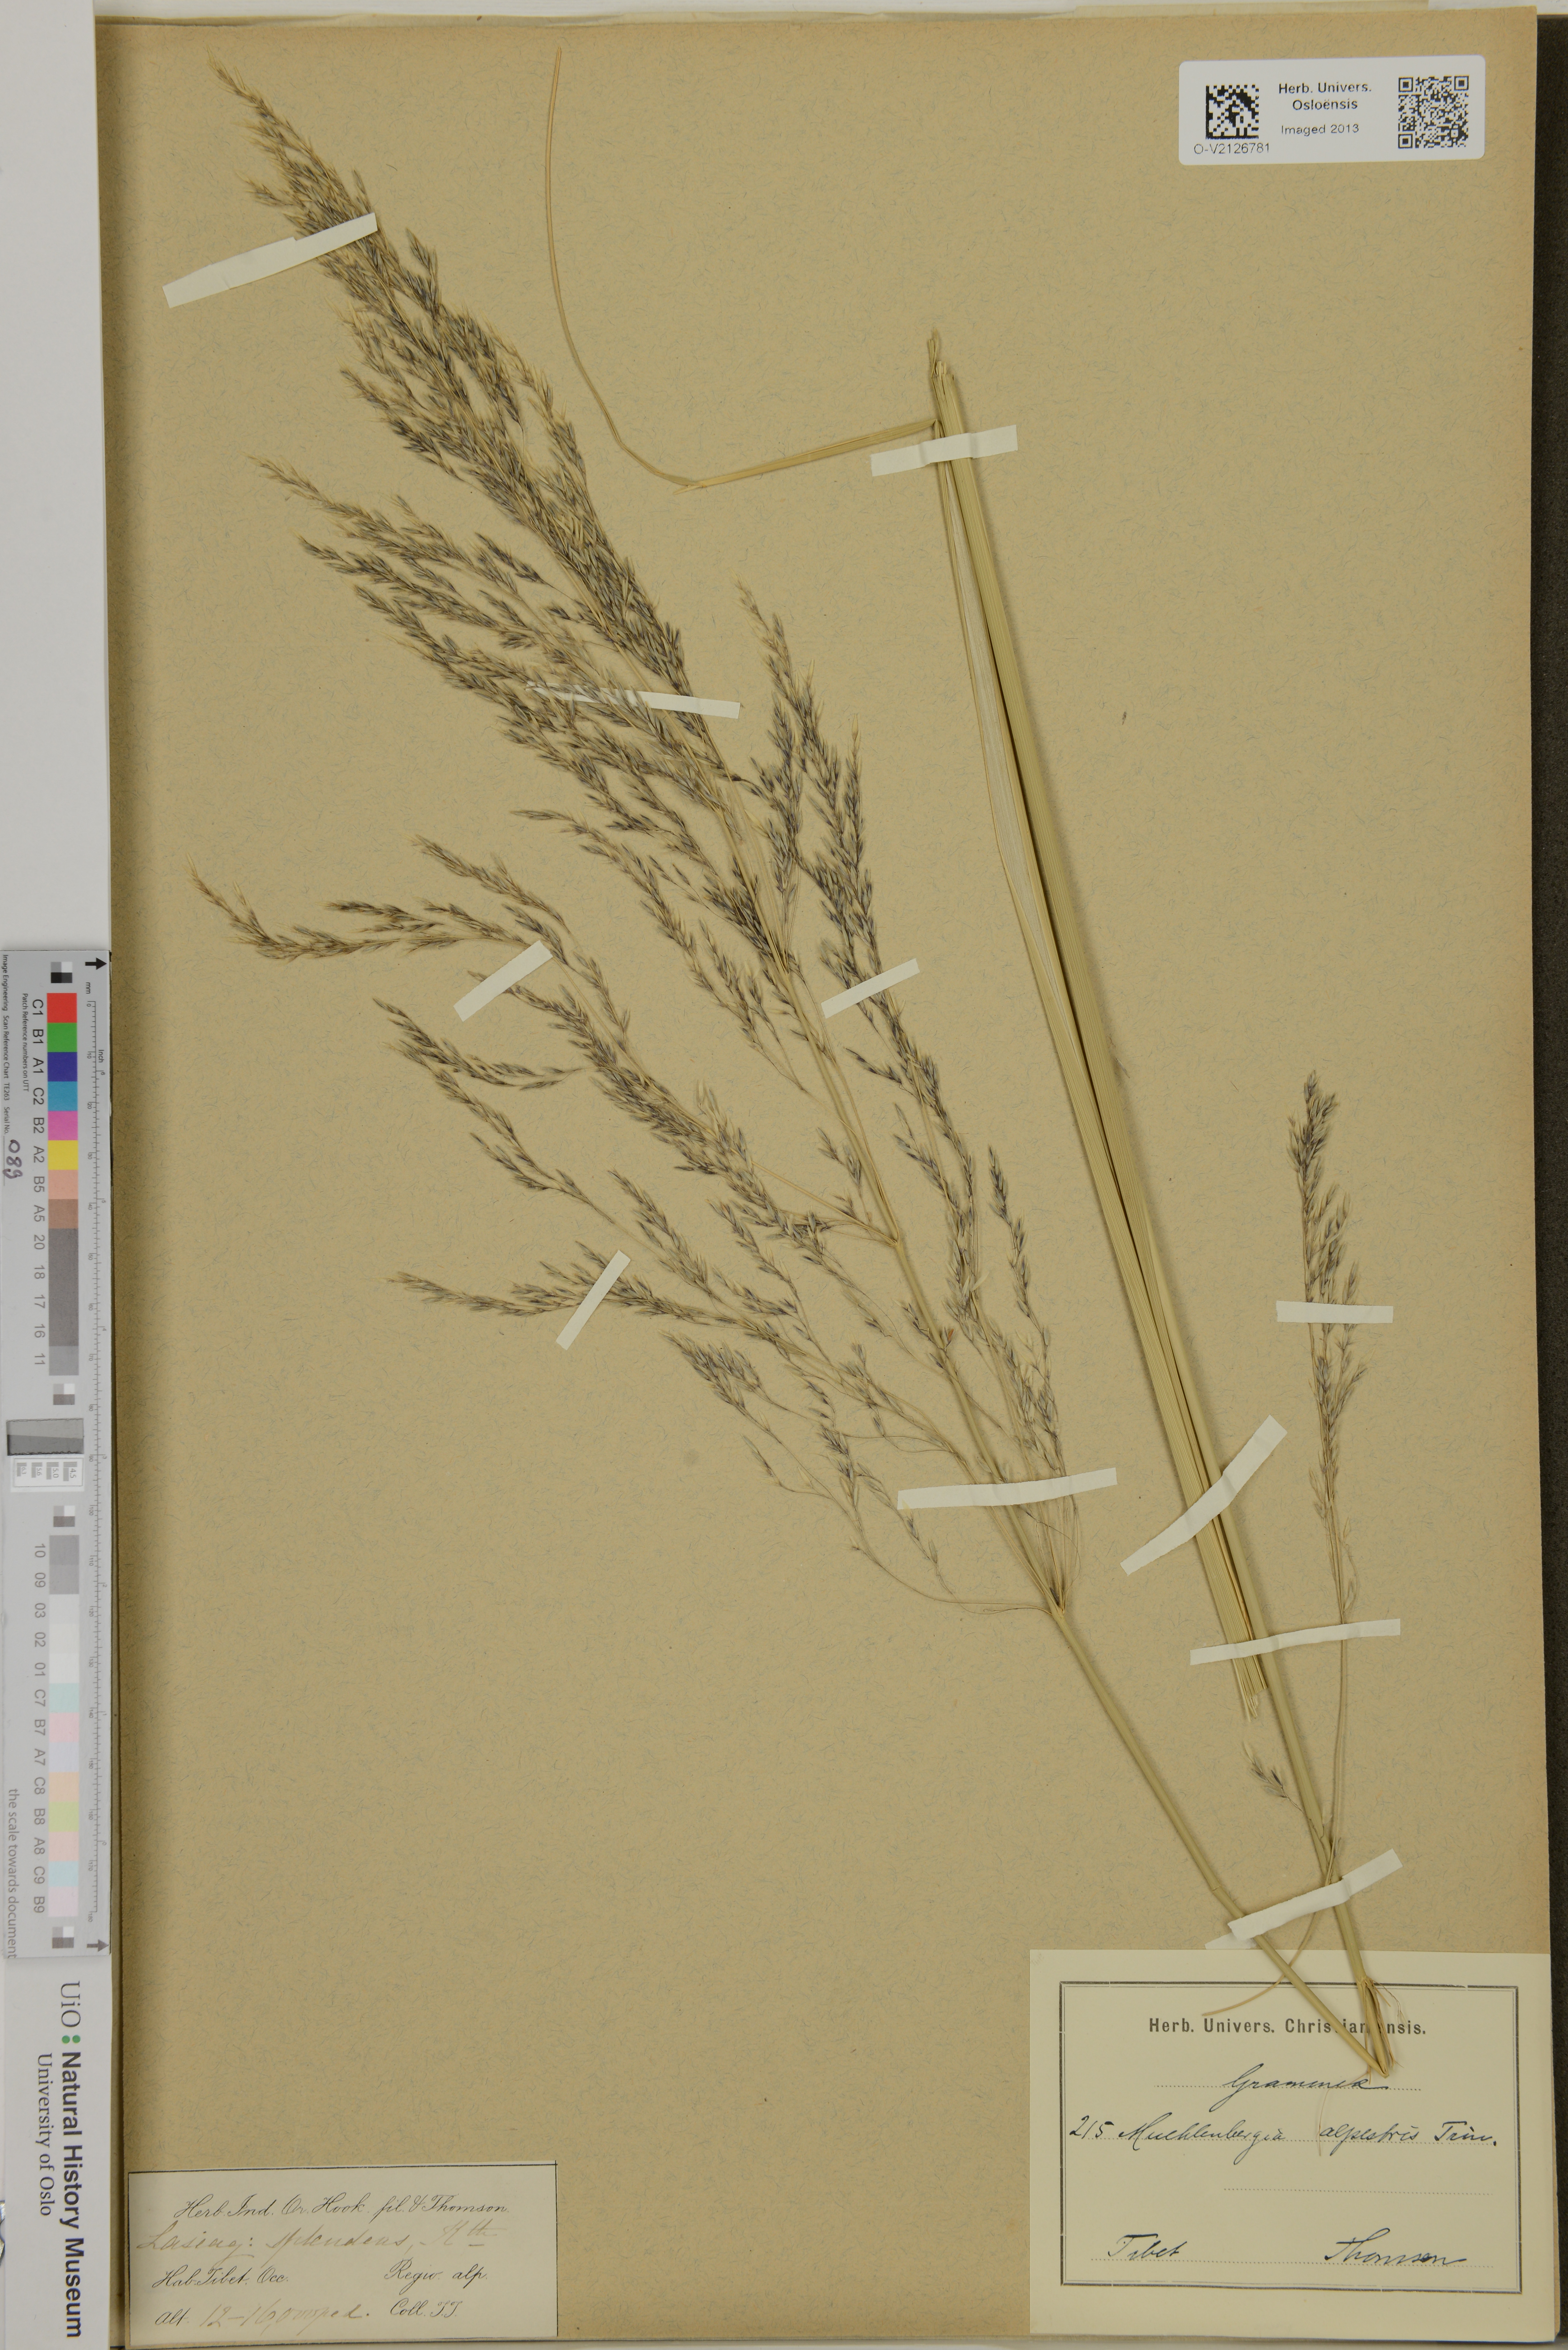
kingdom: Plantae
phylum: Tracheophyta
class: Liliopsida
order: Poales
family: Poaceae
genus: Triniochloa
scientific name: Triniochloa stipoides
